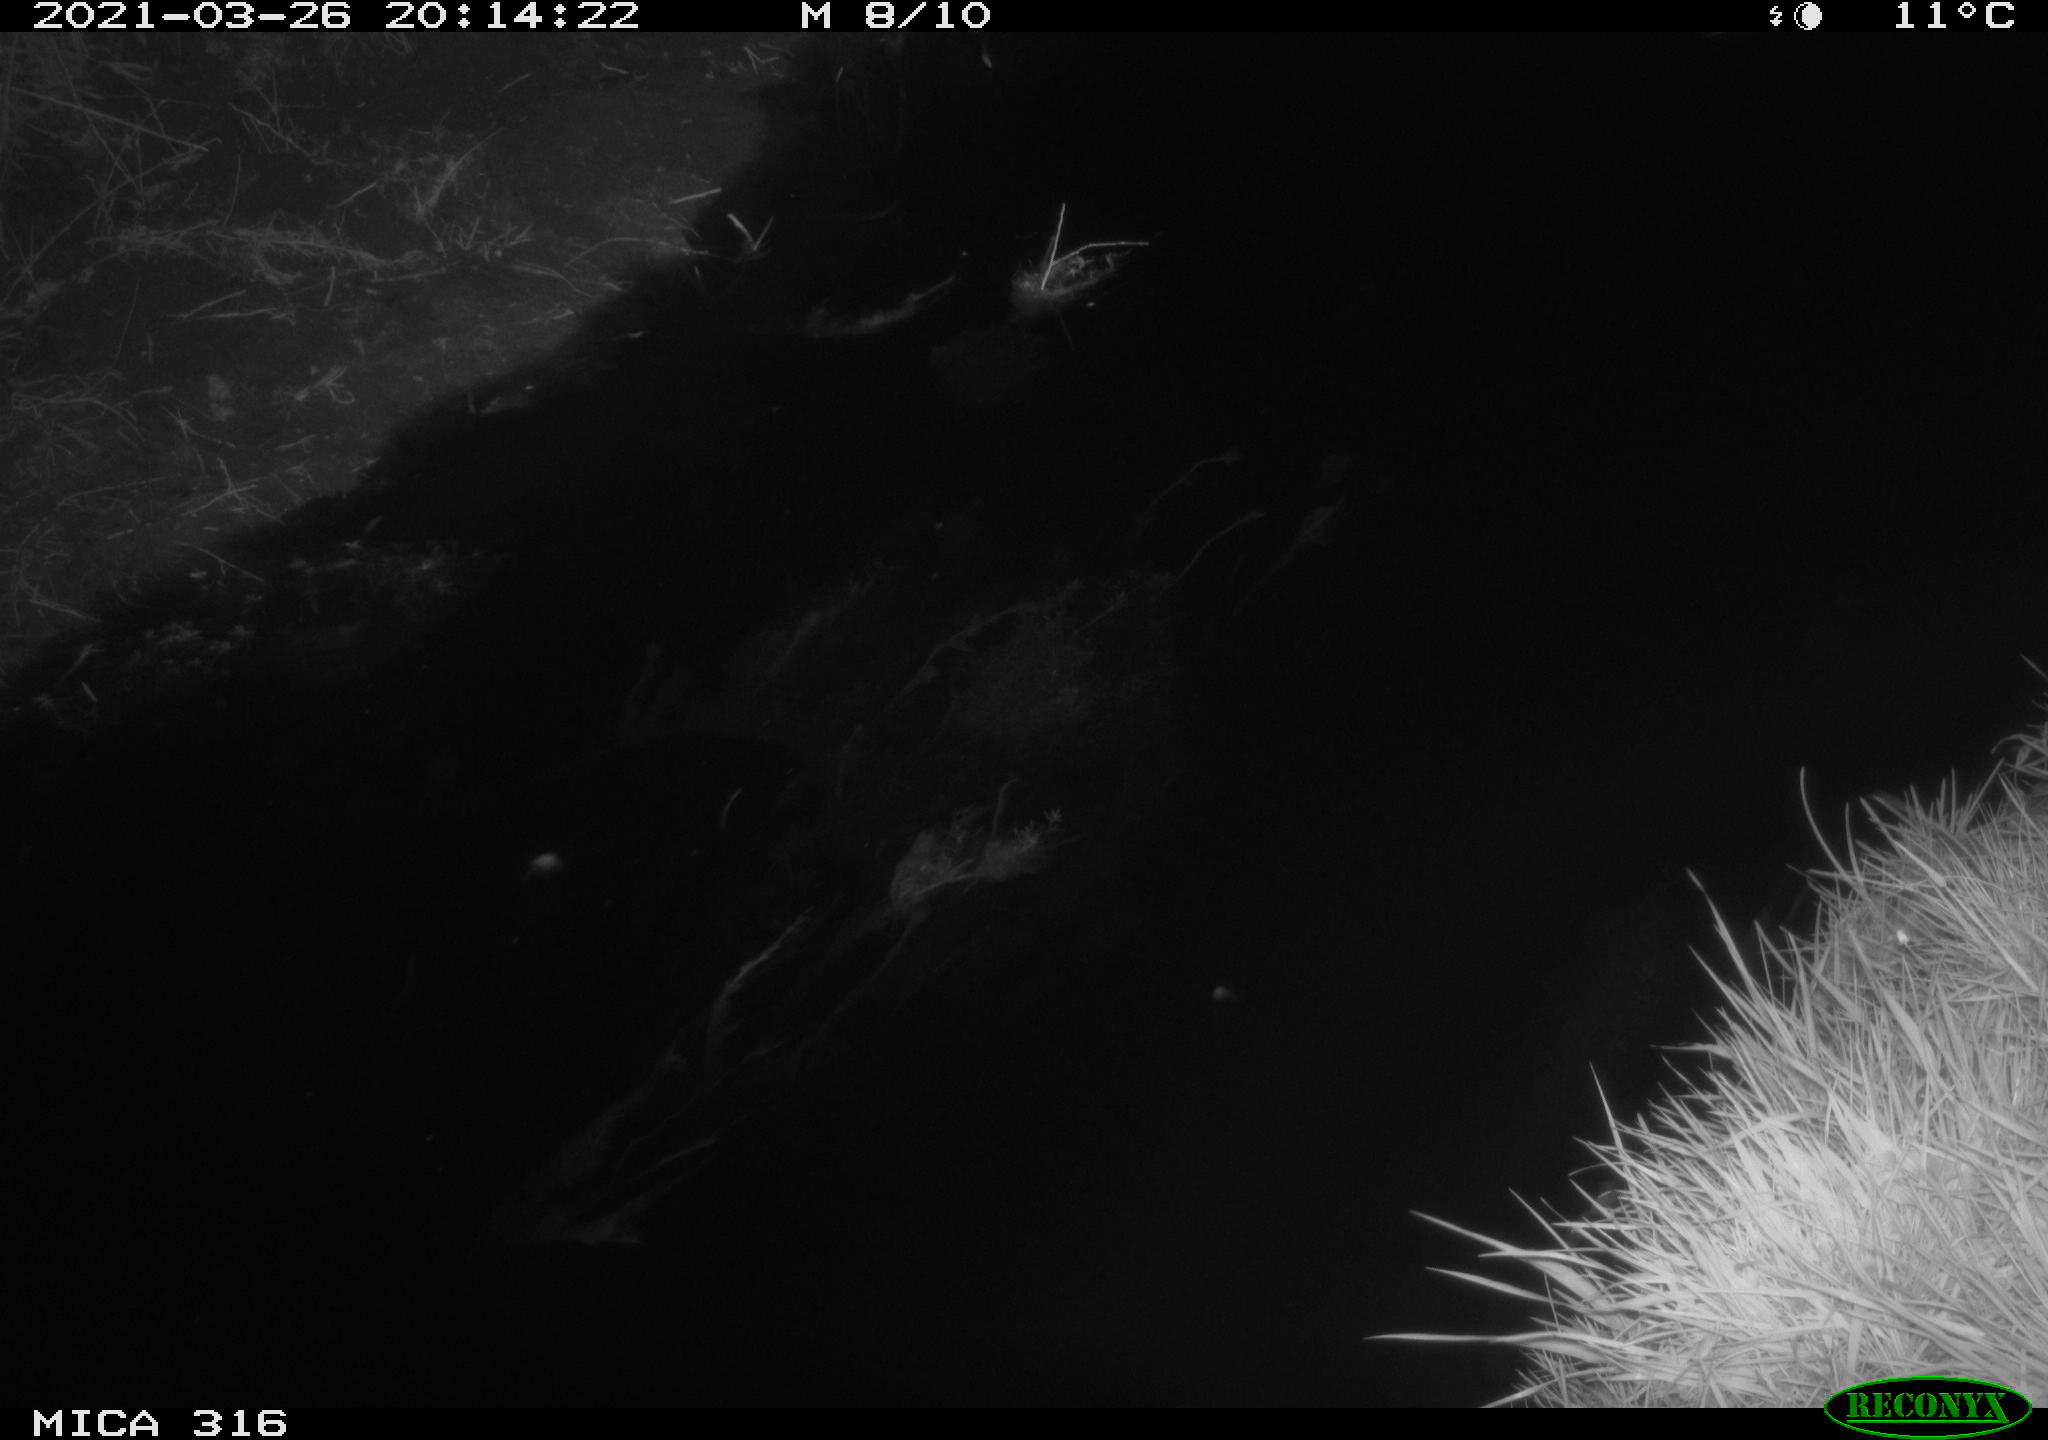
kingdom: Animalia
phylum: Chordata
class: Aves
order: Anseriformes
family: Anatidae
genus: Anas
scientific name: Anas crecca
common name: Eurasian teal
